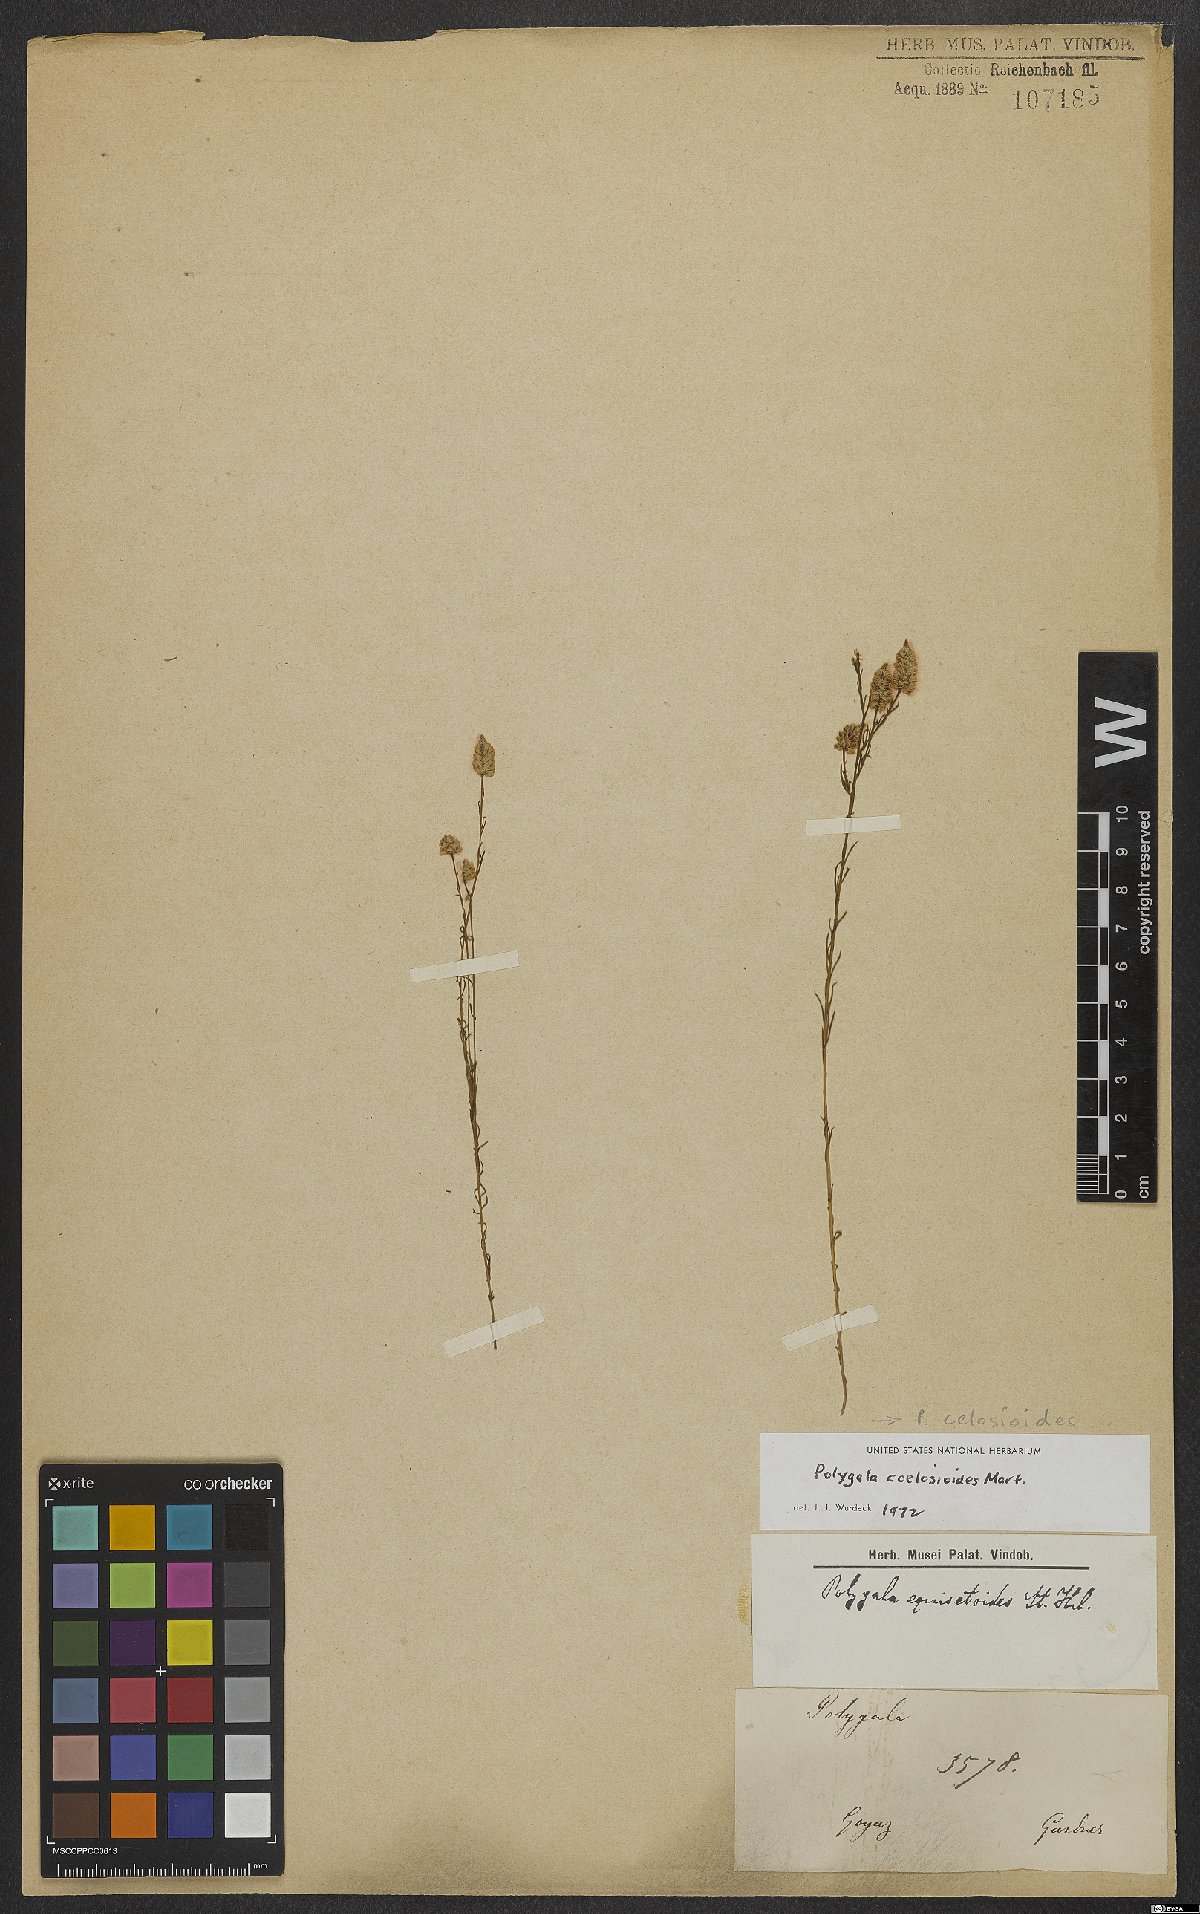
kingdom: Plantae
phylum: Tracheophyta
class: Magnoliopsida
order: Fabales
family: Polygalaceae
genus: Polygala
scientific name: Polygala celosioides
